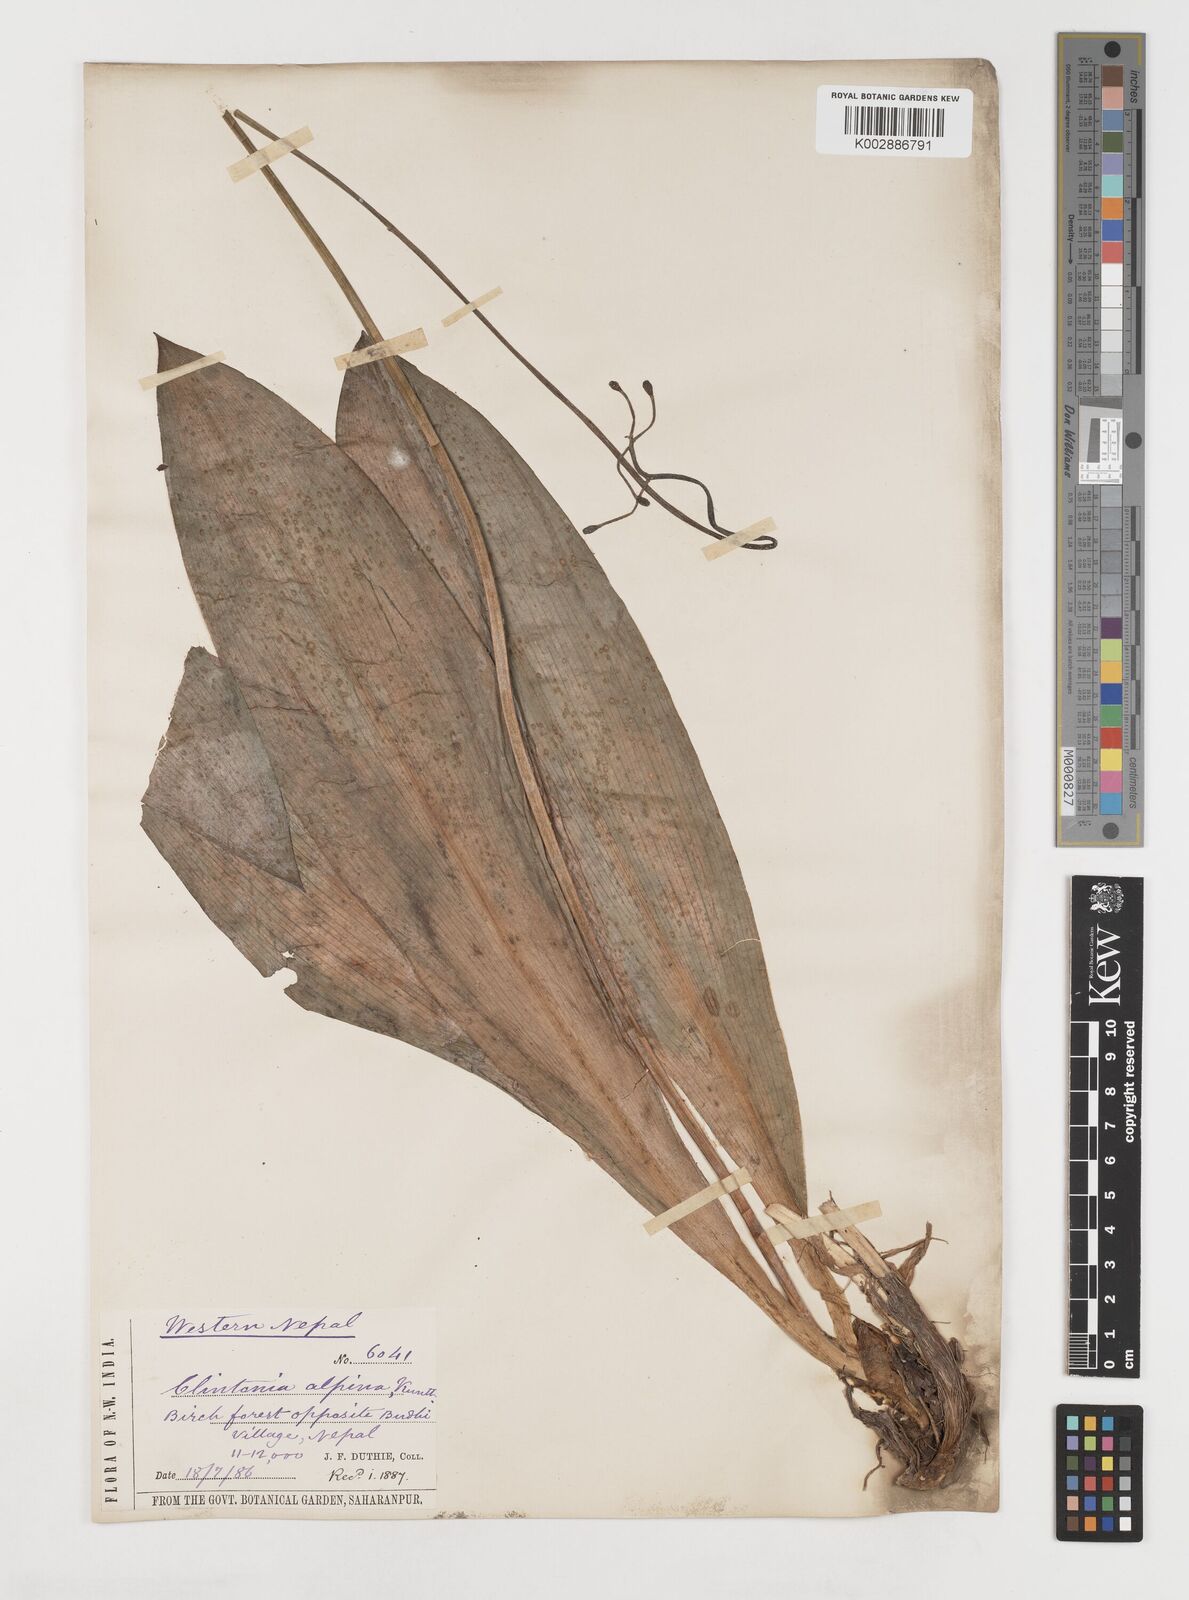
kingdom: Plantae
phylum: Tracheophyta
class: Liliopsida
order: Liliales
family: Liliaceae
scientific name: Liliaceae
